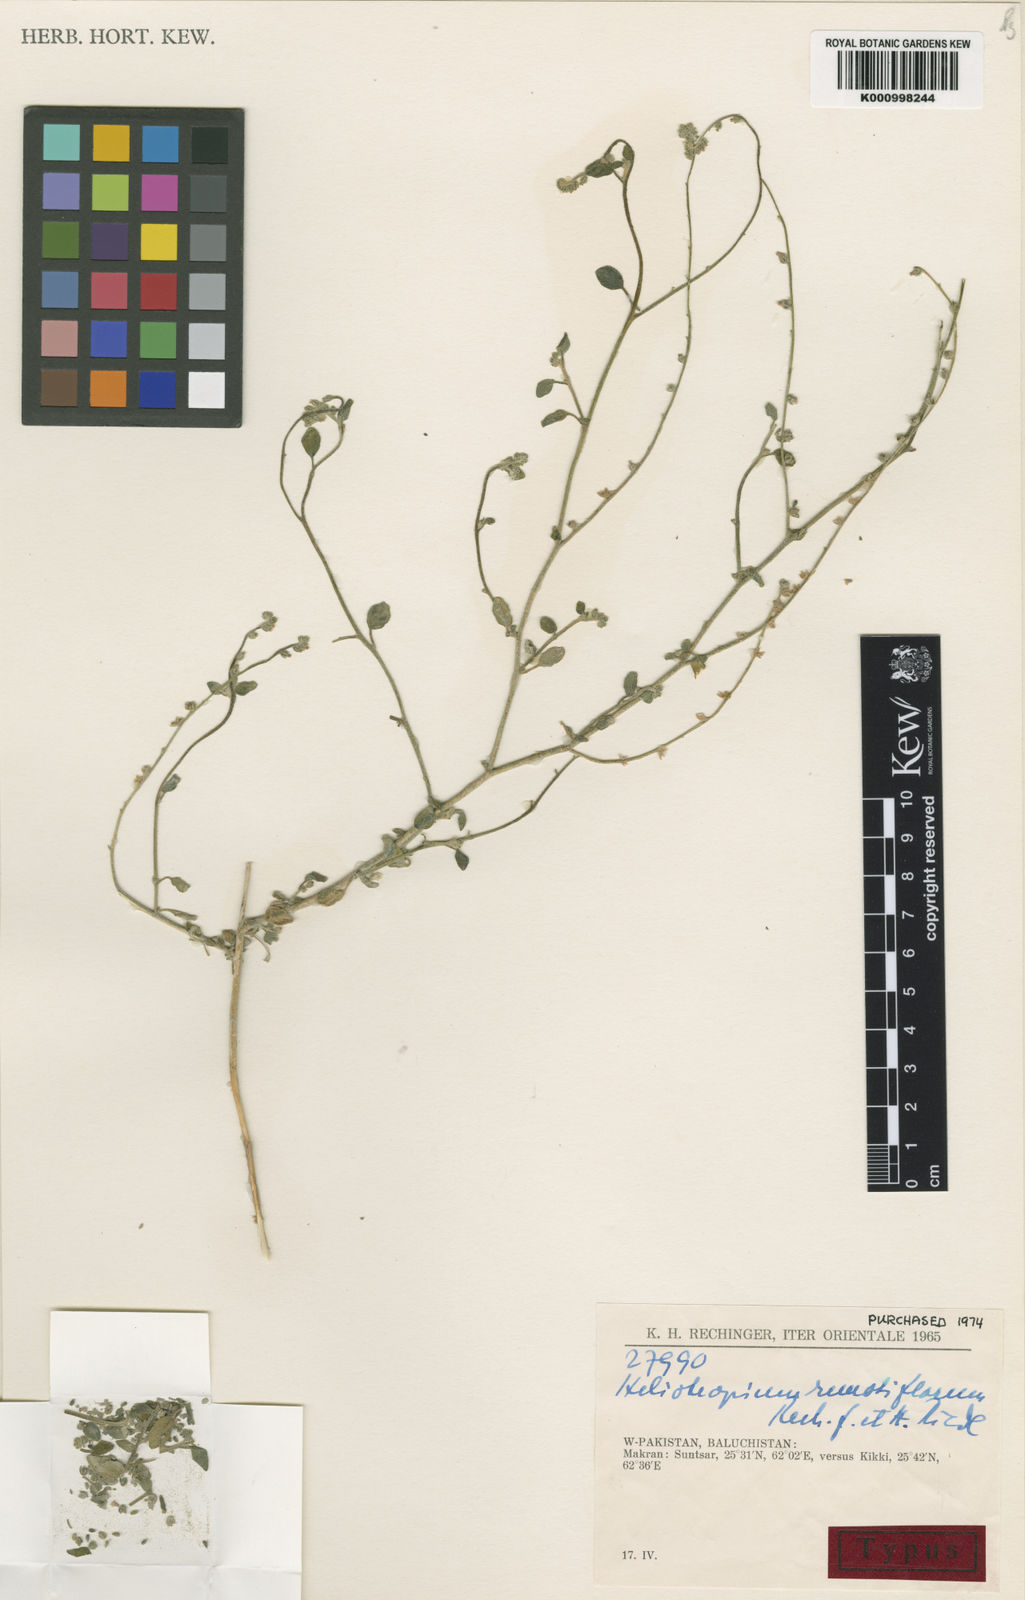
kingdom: Plantae
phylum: Tracheophyta
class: Magnoliopsida
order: Boraginales
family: Heliotropiaceae
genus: Heliotropium
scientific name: Heliotropium remotiflorum
